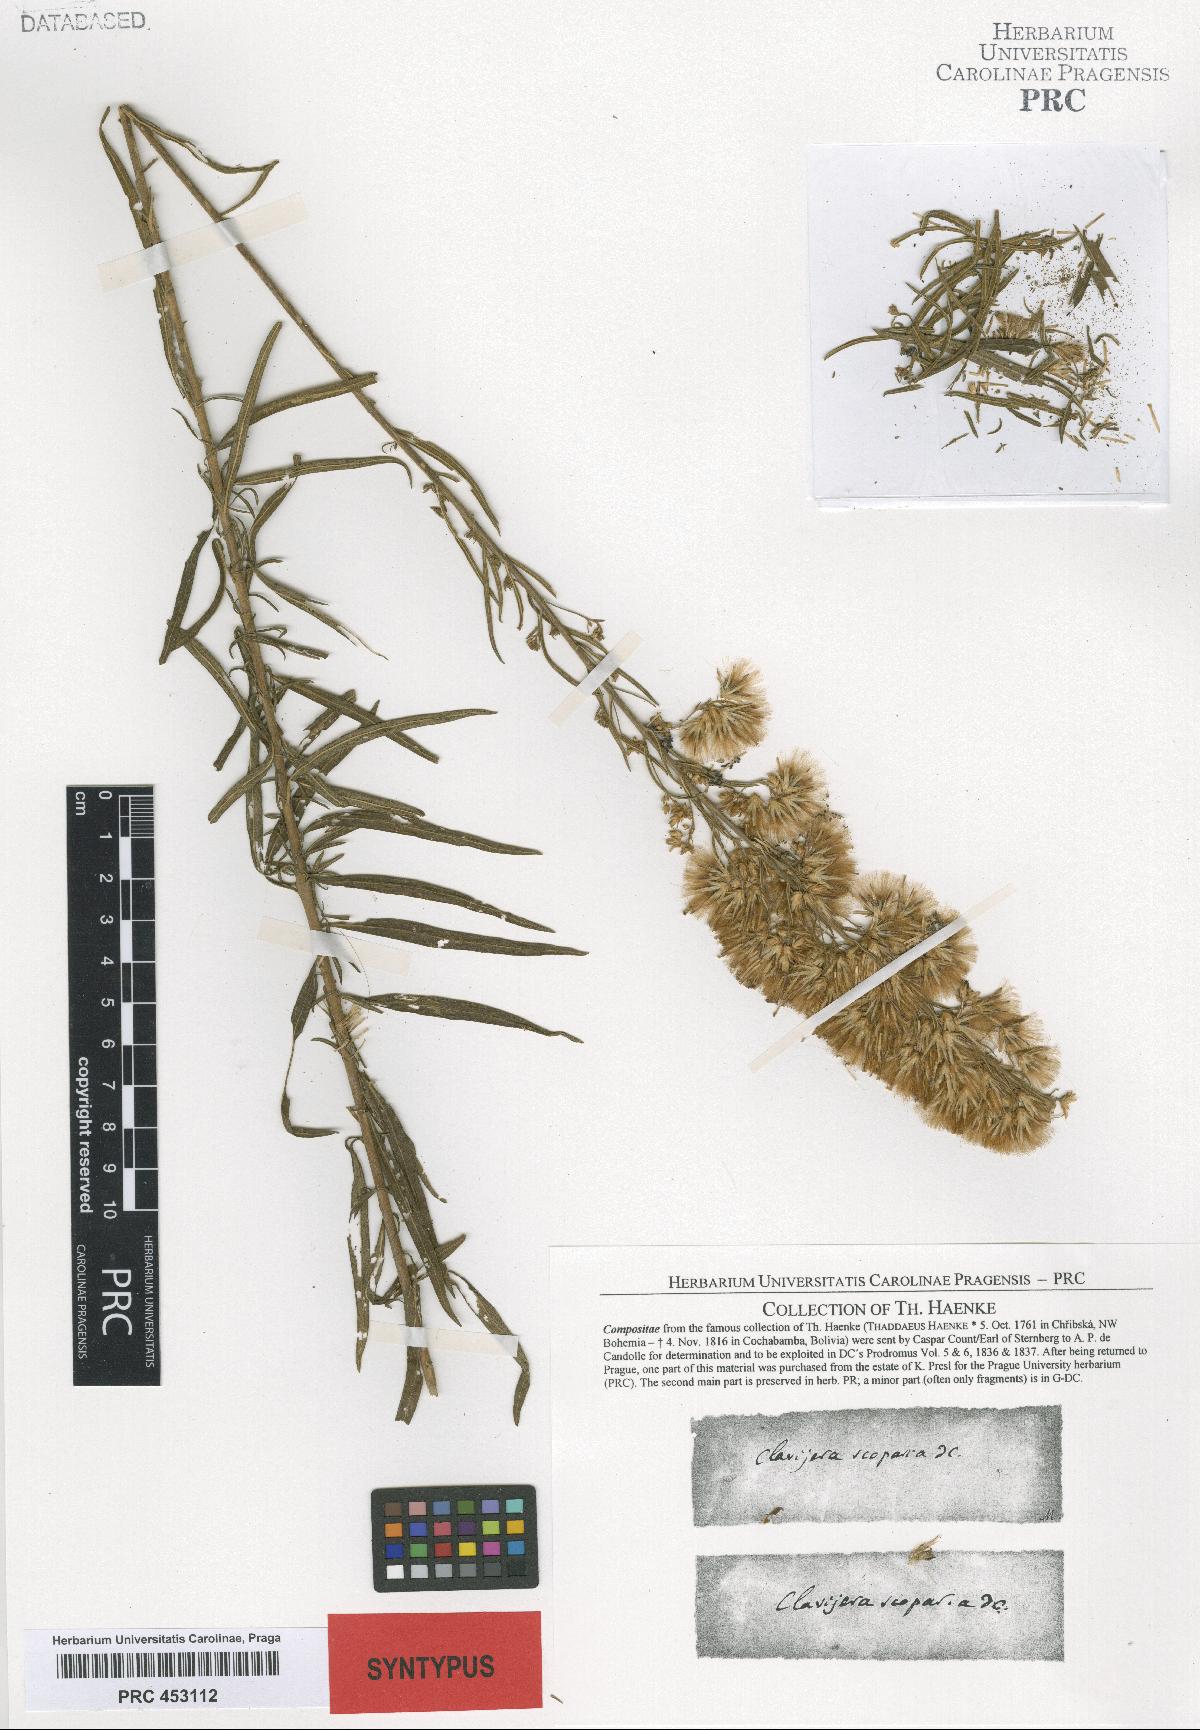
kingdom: Plantae
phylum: Tracheophyta
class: Magnoliopsida
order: Asterales
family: Asteraceae
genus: Brickellia
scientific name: Brickellia scoparia
